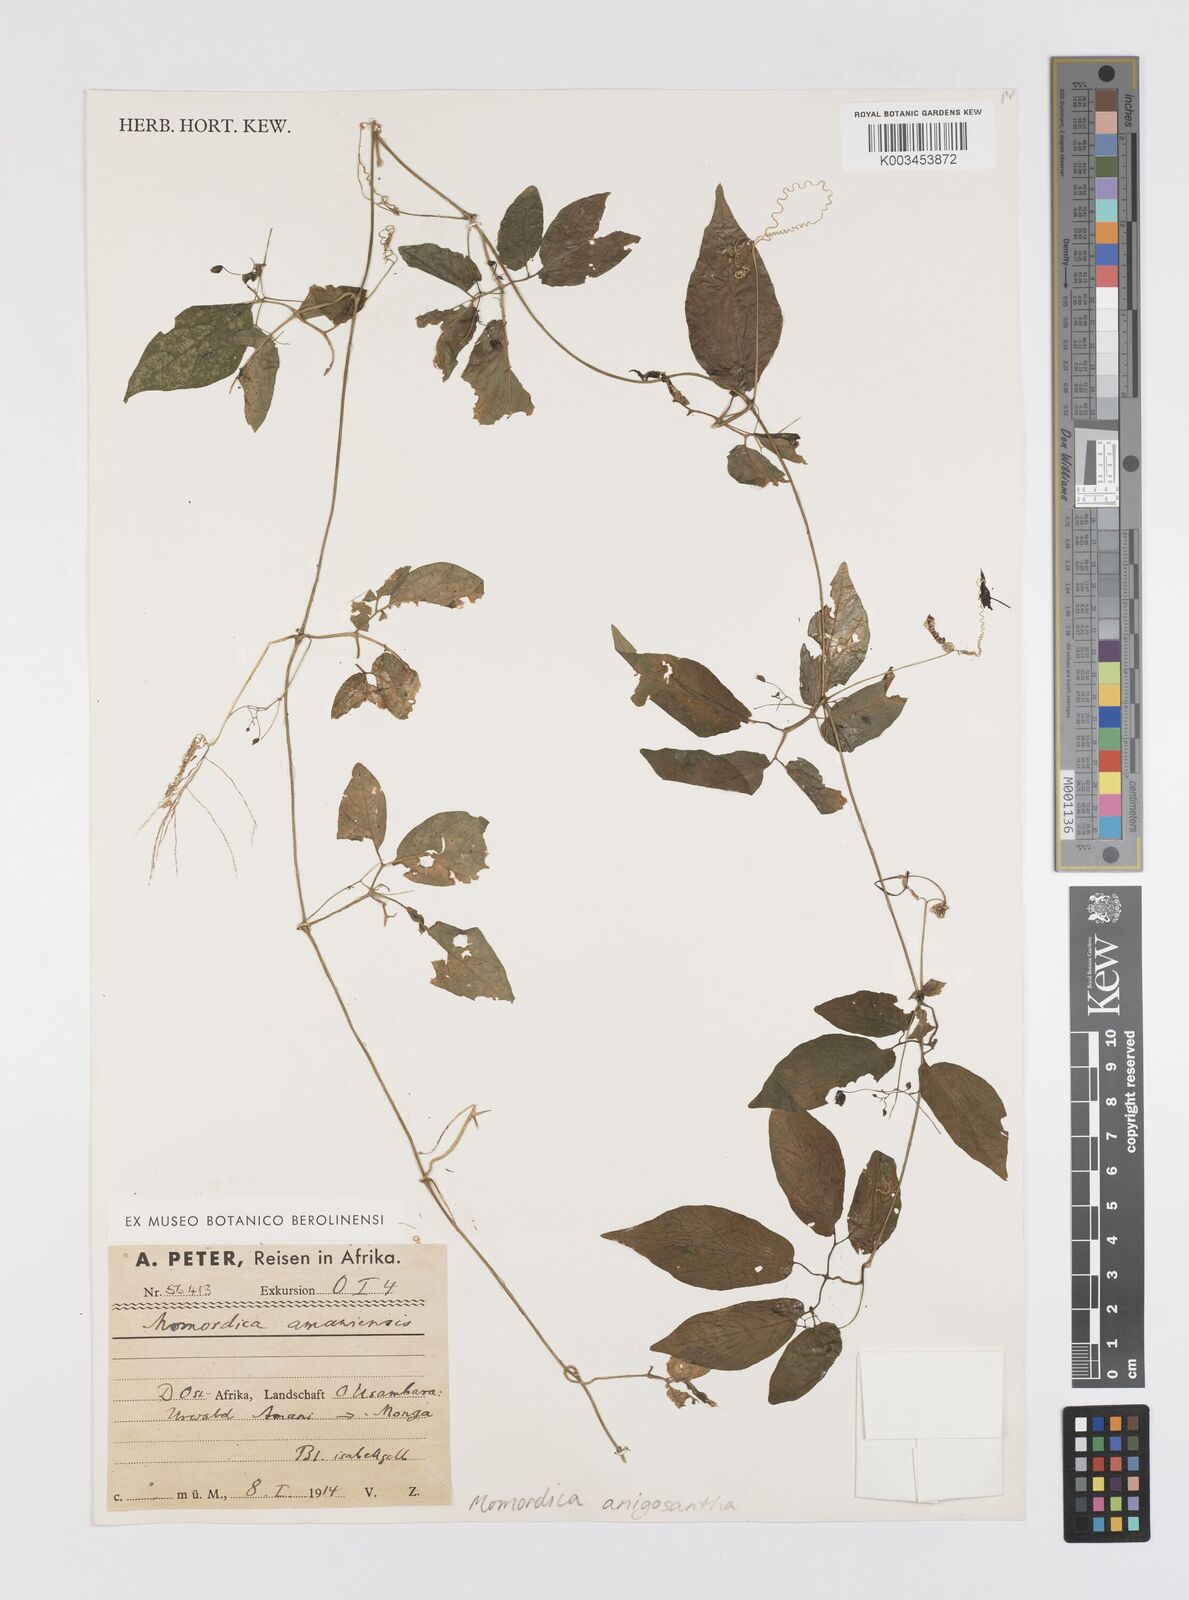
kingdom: Plantae
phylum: Tracheophyta
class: Magnoliopsida
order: Cucurbitales
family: Cucurbitaceae
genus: Momordica
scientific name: Momordica anigosantha
